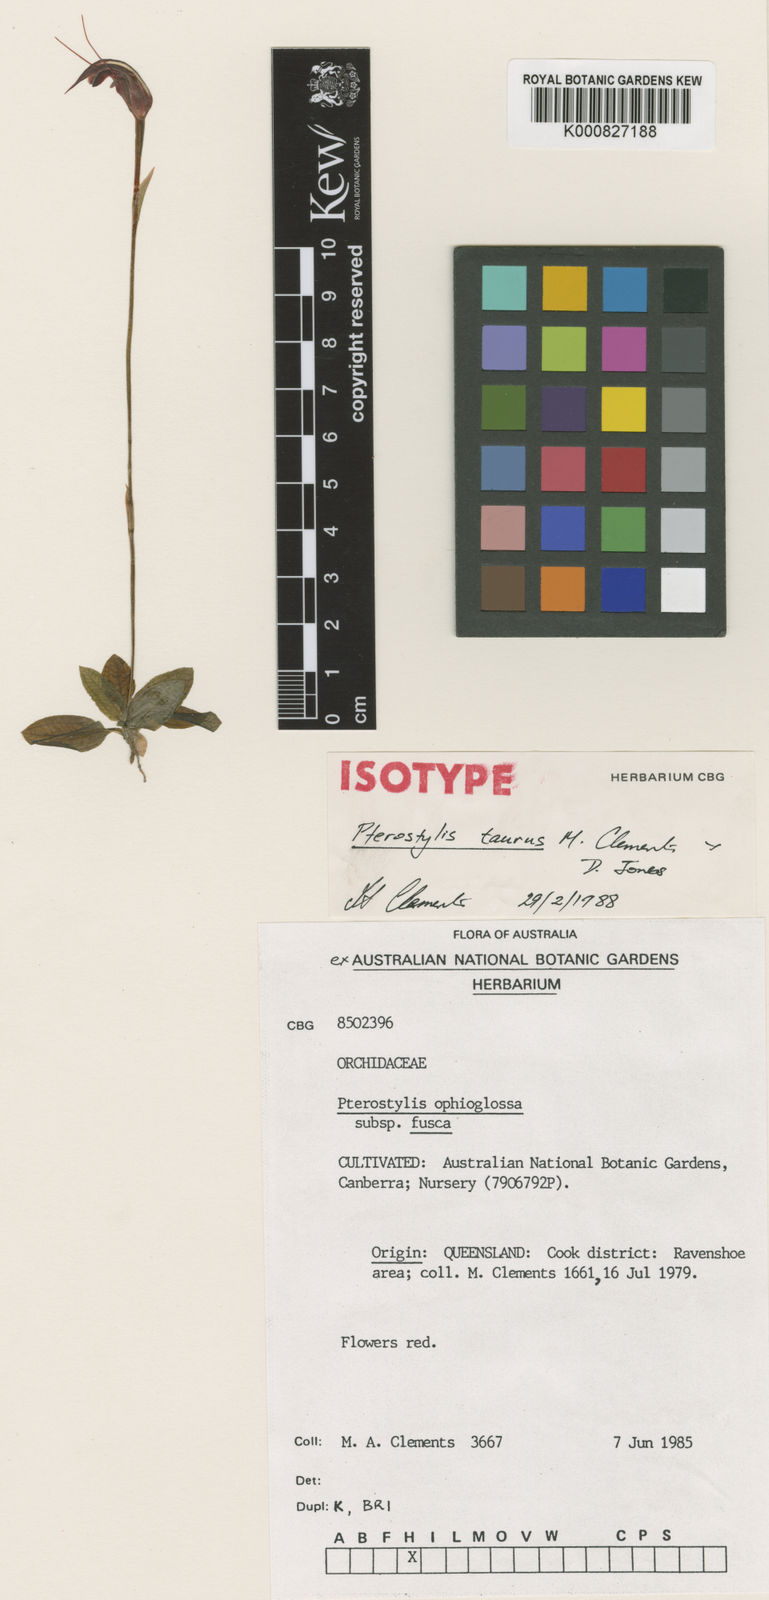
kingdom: Plantae
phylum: Tracheophyta
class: Liliopsida
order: Asparagales
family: Orchidaceae
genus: Pterostylis
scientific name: Pterostylis taurus
